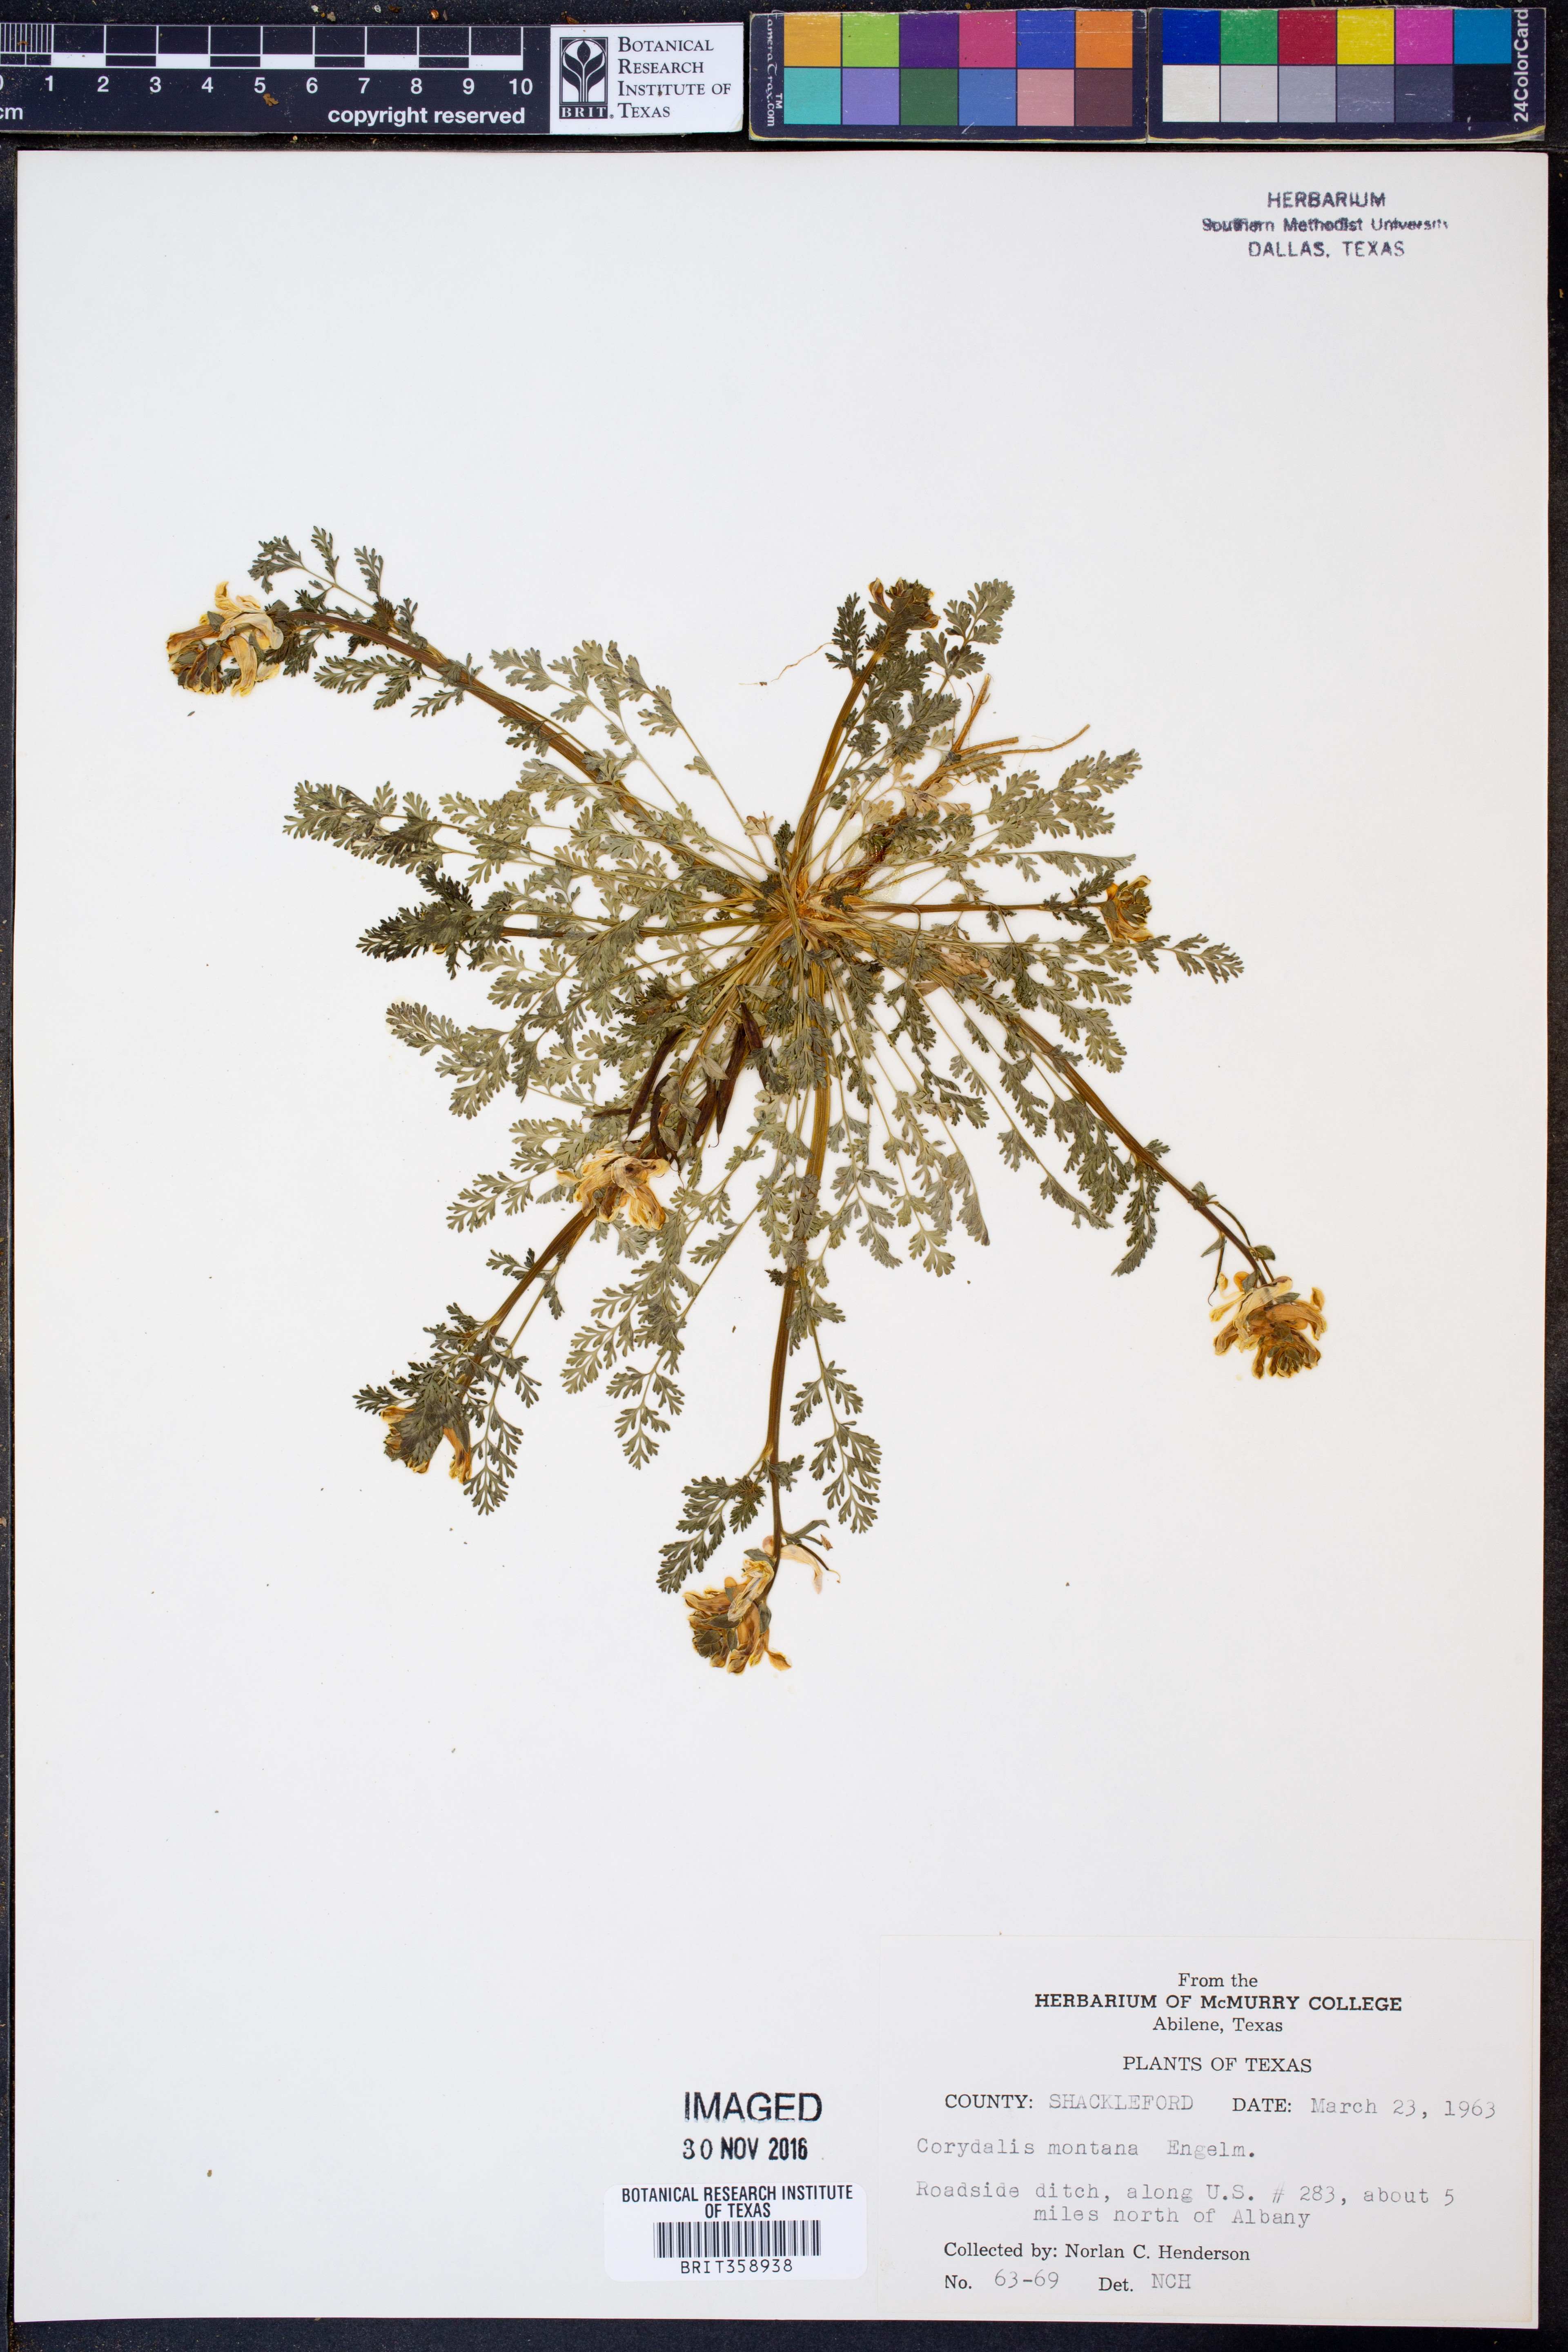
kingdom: Plantae
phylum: Tracheophyta
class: Magnoliopsida
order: Ranunculales
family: Papaveraceae
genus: Corydalis
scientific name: Corydalis curvisiliqua
